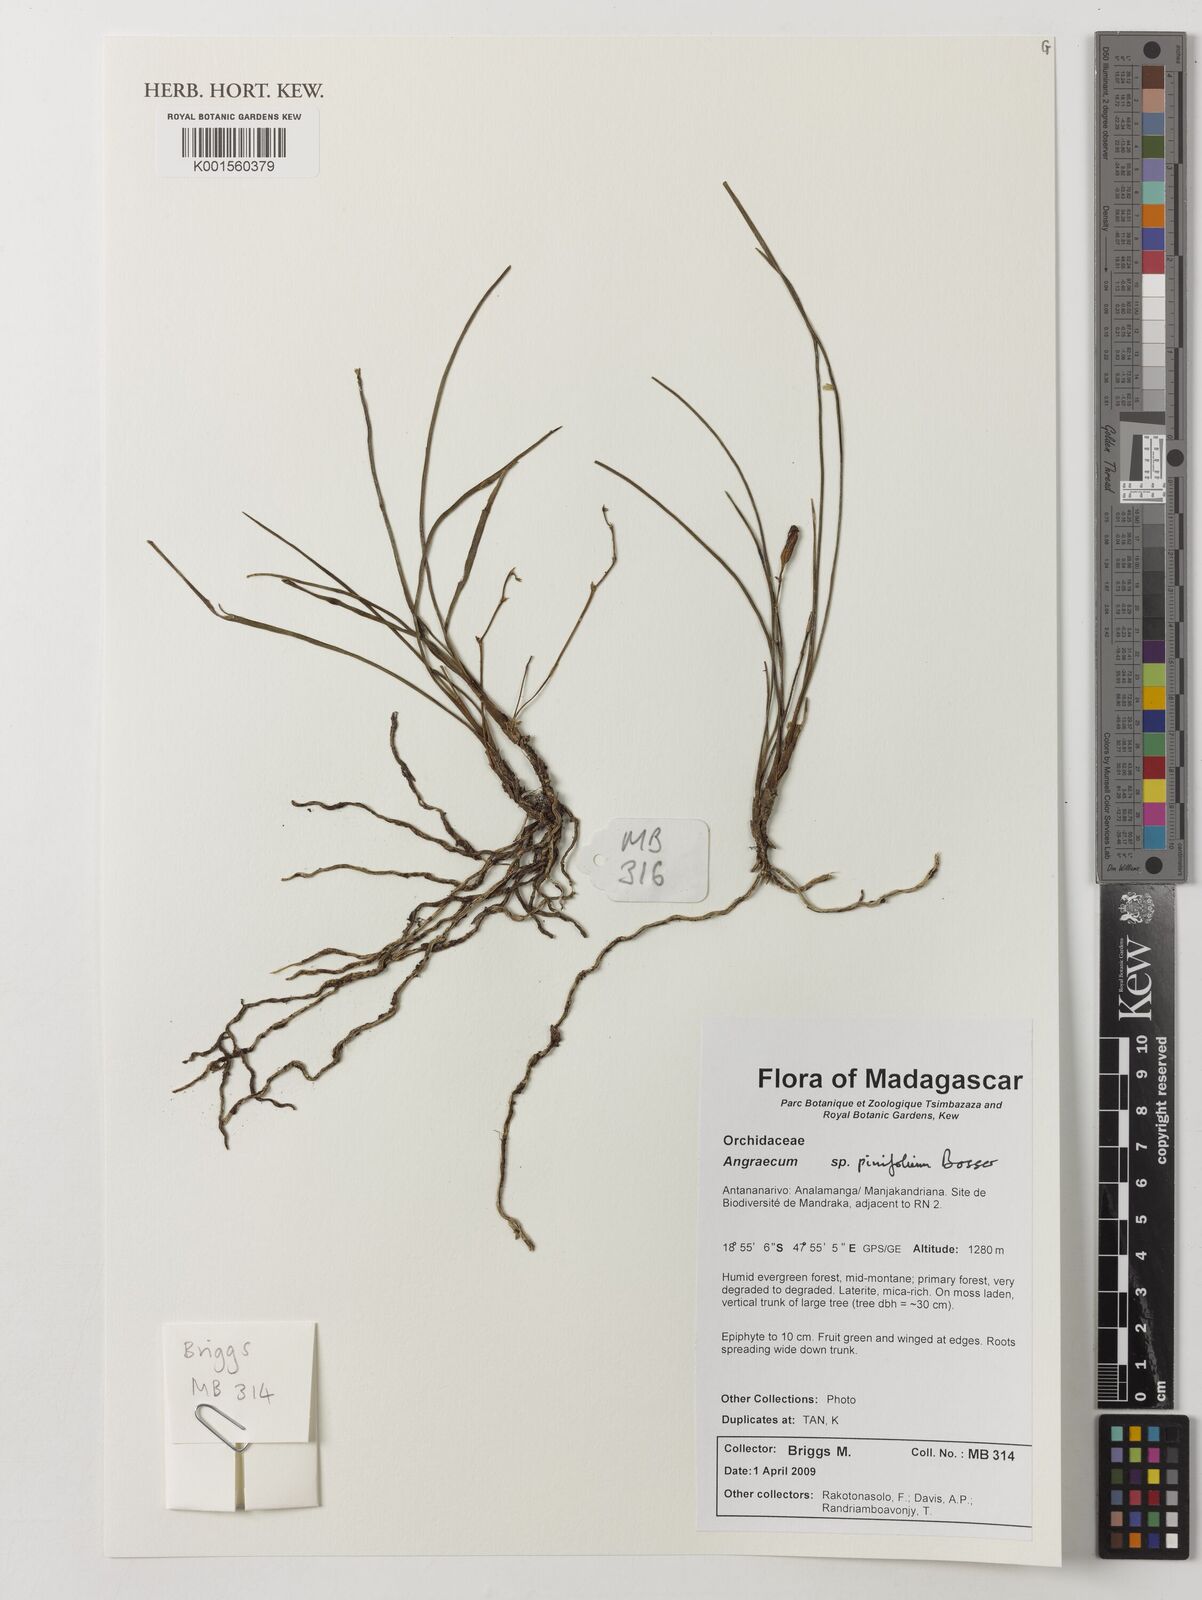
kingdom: Plantae
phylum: Tracheophyta
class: Liliopsida
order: Asparagales
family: Orchidaceae
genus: Angraecum
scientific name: Angraecum pinifolium
